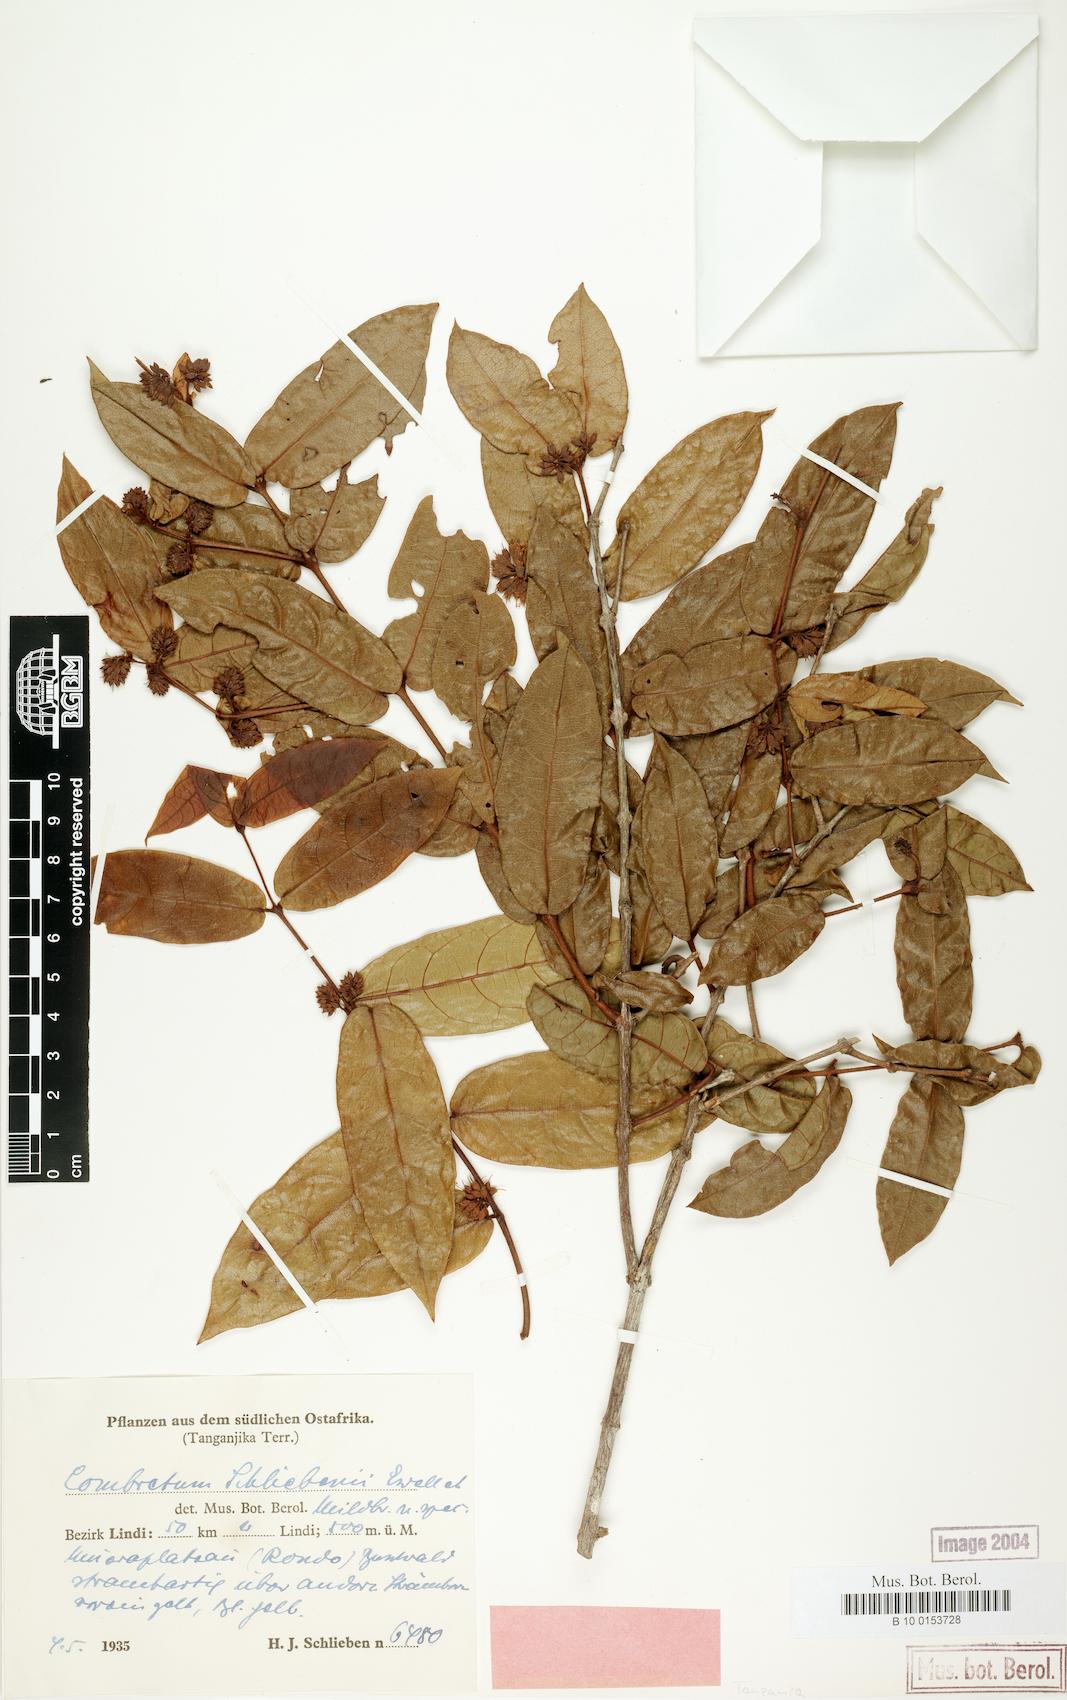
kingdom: Plantae
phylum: Tracheophyta
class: Magnoliopsida
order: Myrtales
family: Combretaceae
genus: Combretum
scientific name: Combretum iliairii
